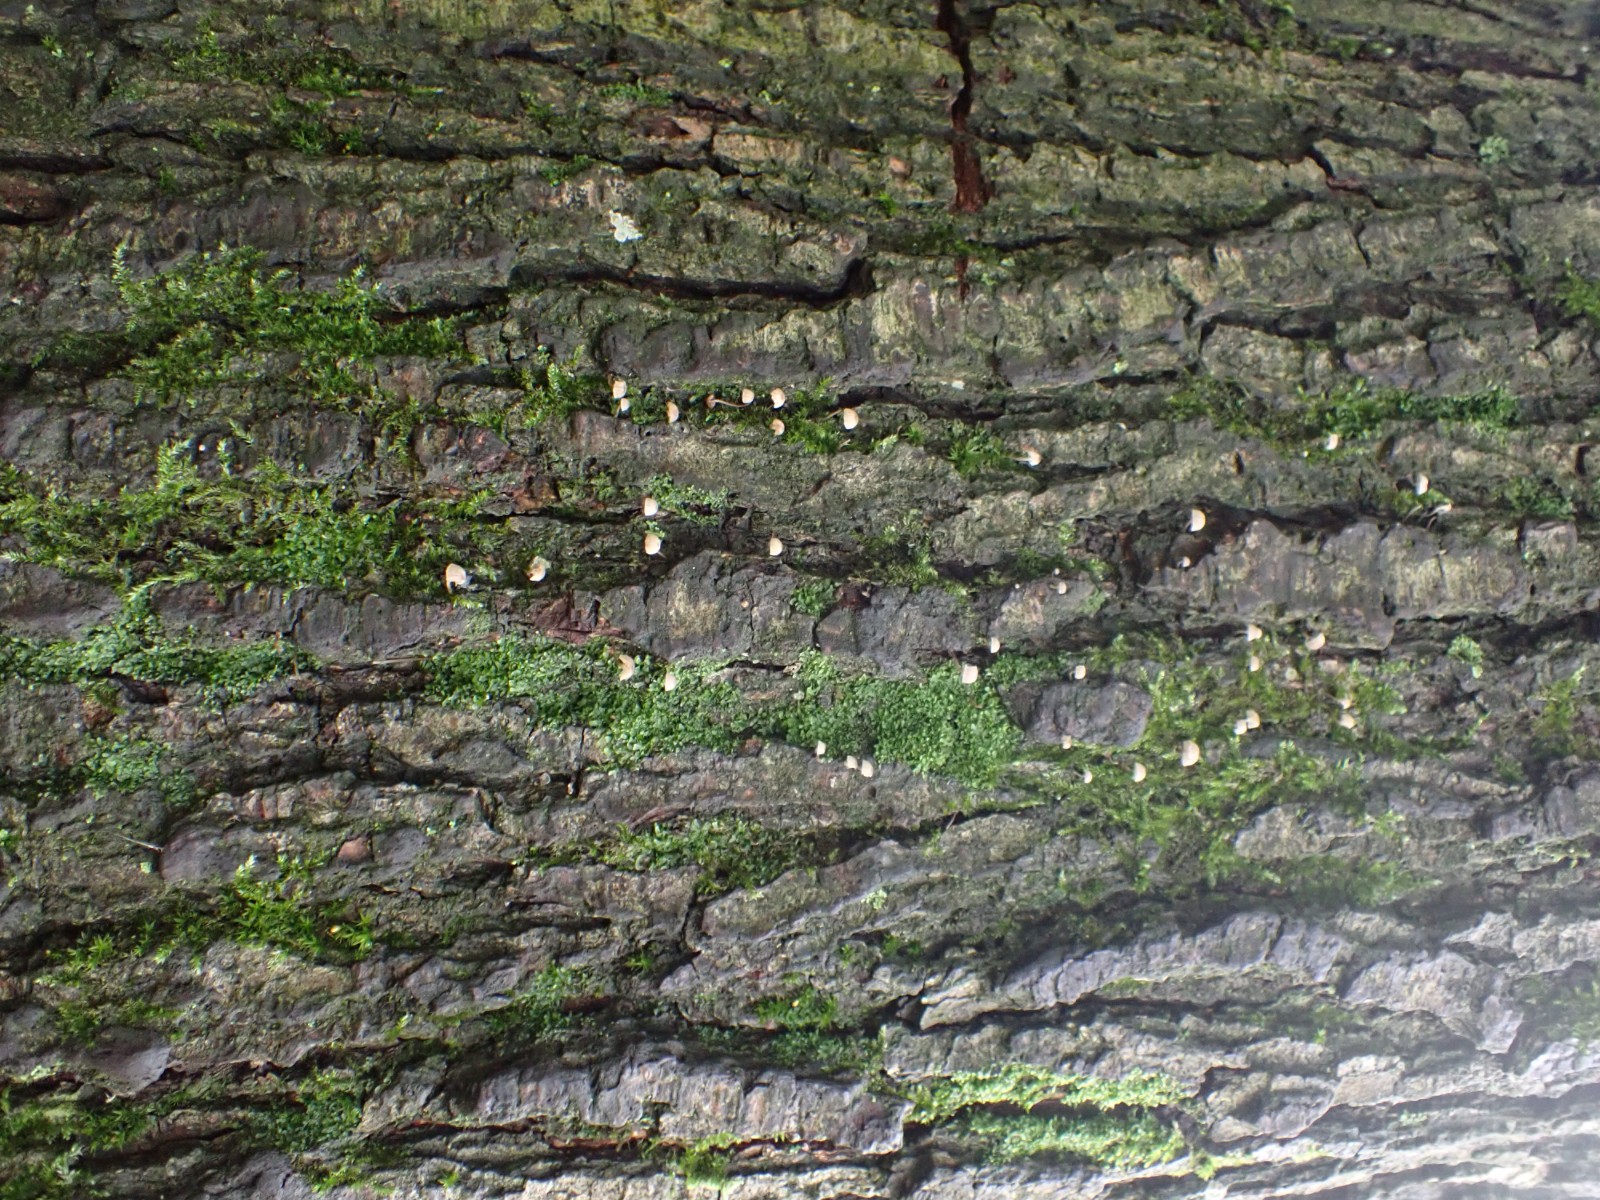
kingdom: Fungi
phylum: Basidiomycota
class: Agaricomycetes
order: Agaricales
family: Mycenaceae
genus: Mycena
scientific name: Mycena
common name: huesvamp
